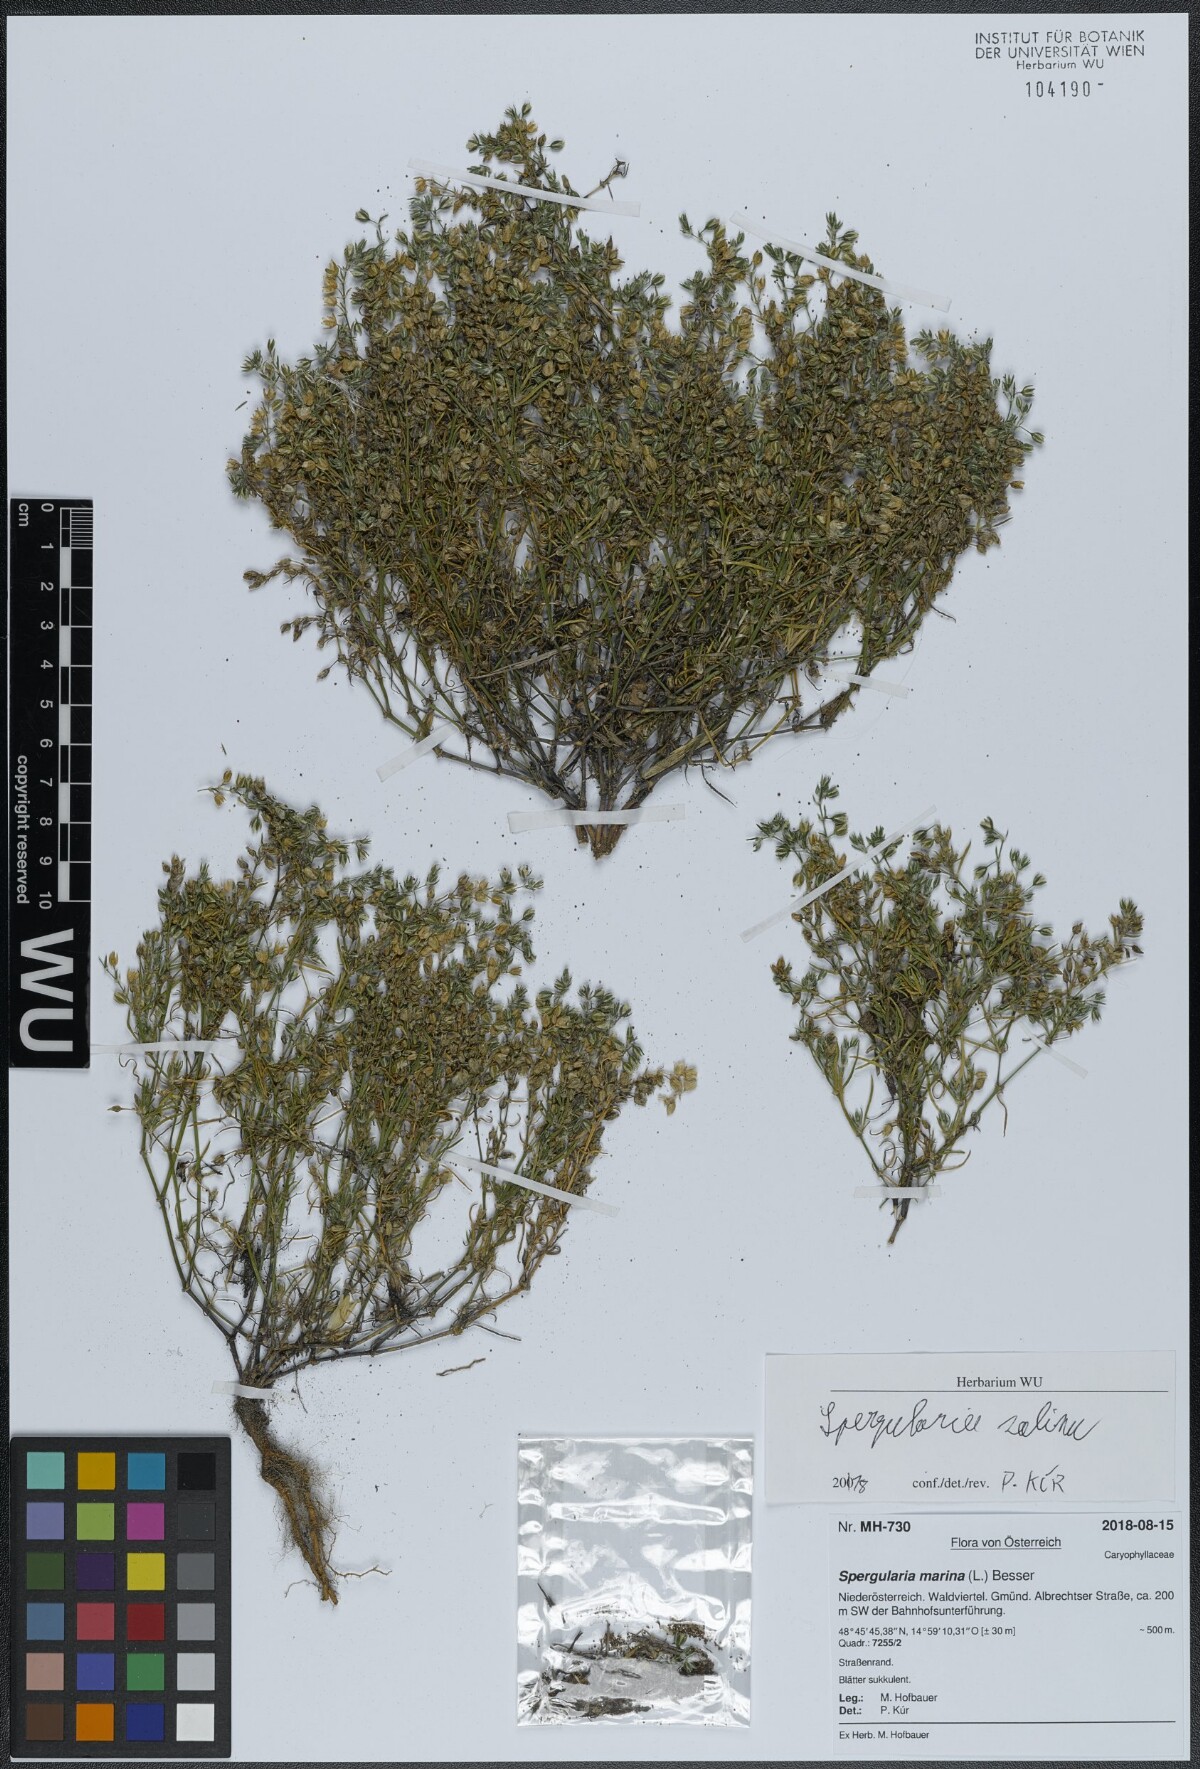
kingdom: Plantae
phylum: Tracheophyta
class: Magnoliopsida
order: Caryophyllales
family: Caryophyllaceae
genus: Spergularia
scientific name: Spergularia marina
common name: Lesser sea-spurrey
